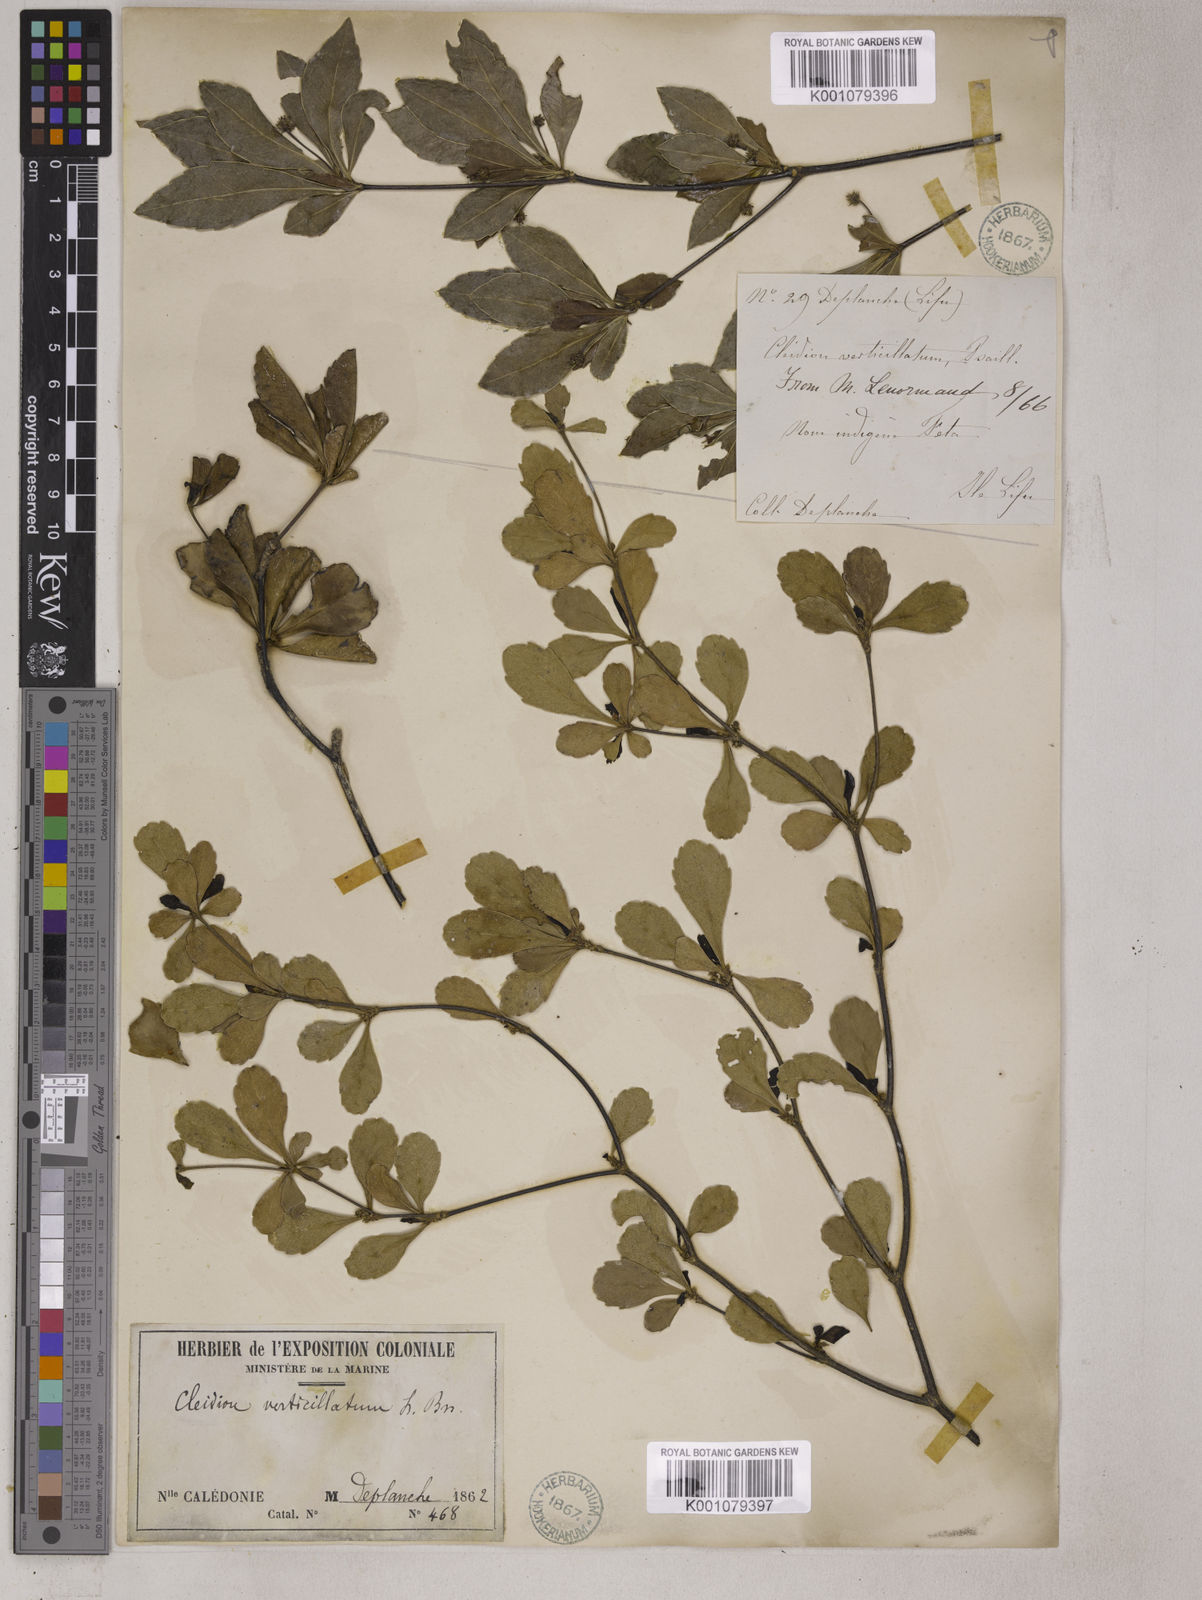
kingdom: Plantae
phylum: Tracheophyta
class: Magnoliopsida
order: Malpighiales
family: Euphorbiaceae
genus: Cleidion
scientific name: Cleidion verticillatum
